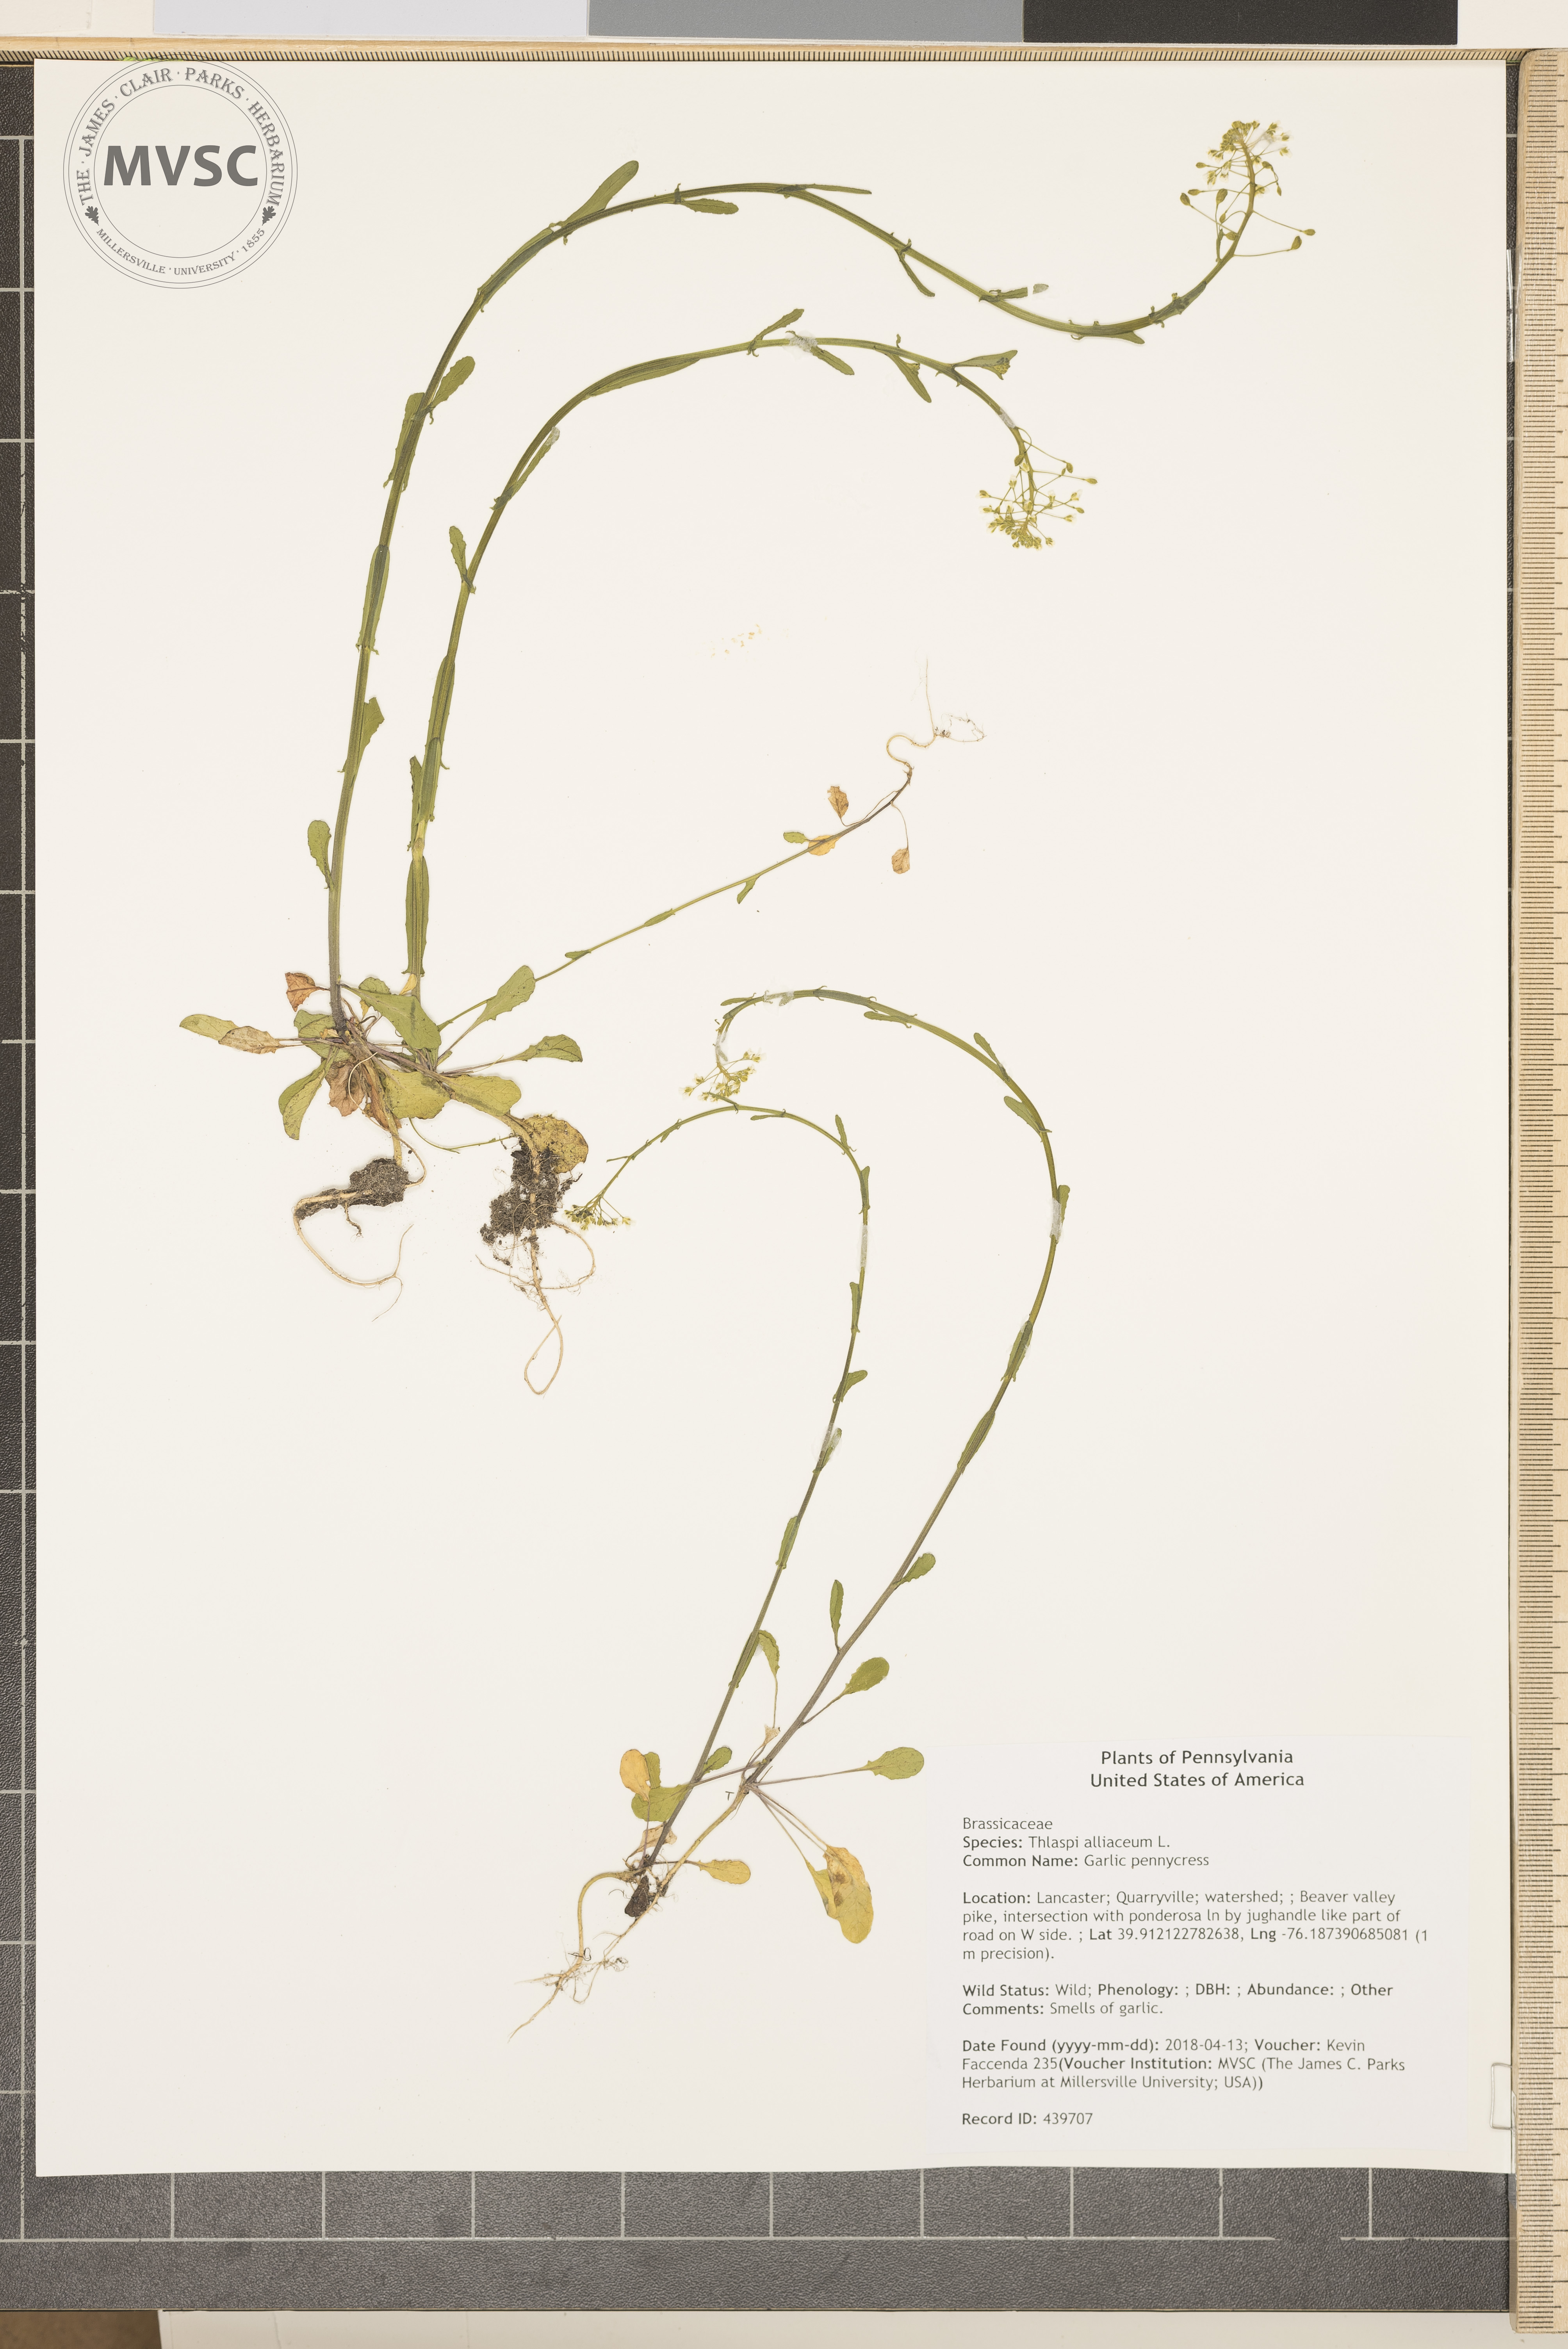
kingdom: Plantae
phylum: Tracheophyta
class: Magnoliopsida
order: Brassicales
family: Brassicaceae
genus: Mummenhoffia
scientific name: Mummenhoffia alliacea
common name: Garlic pennycress
